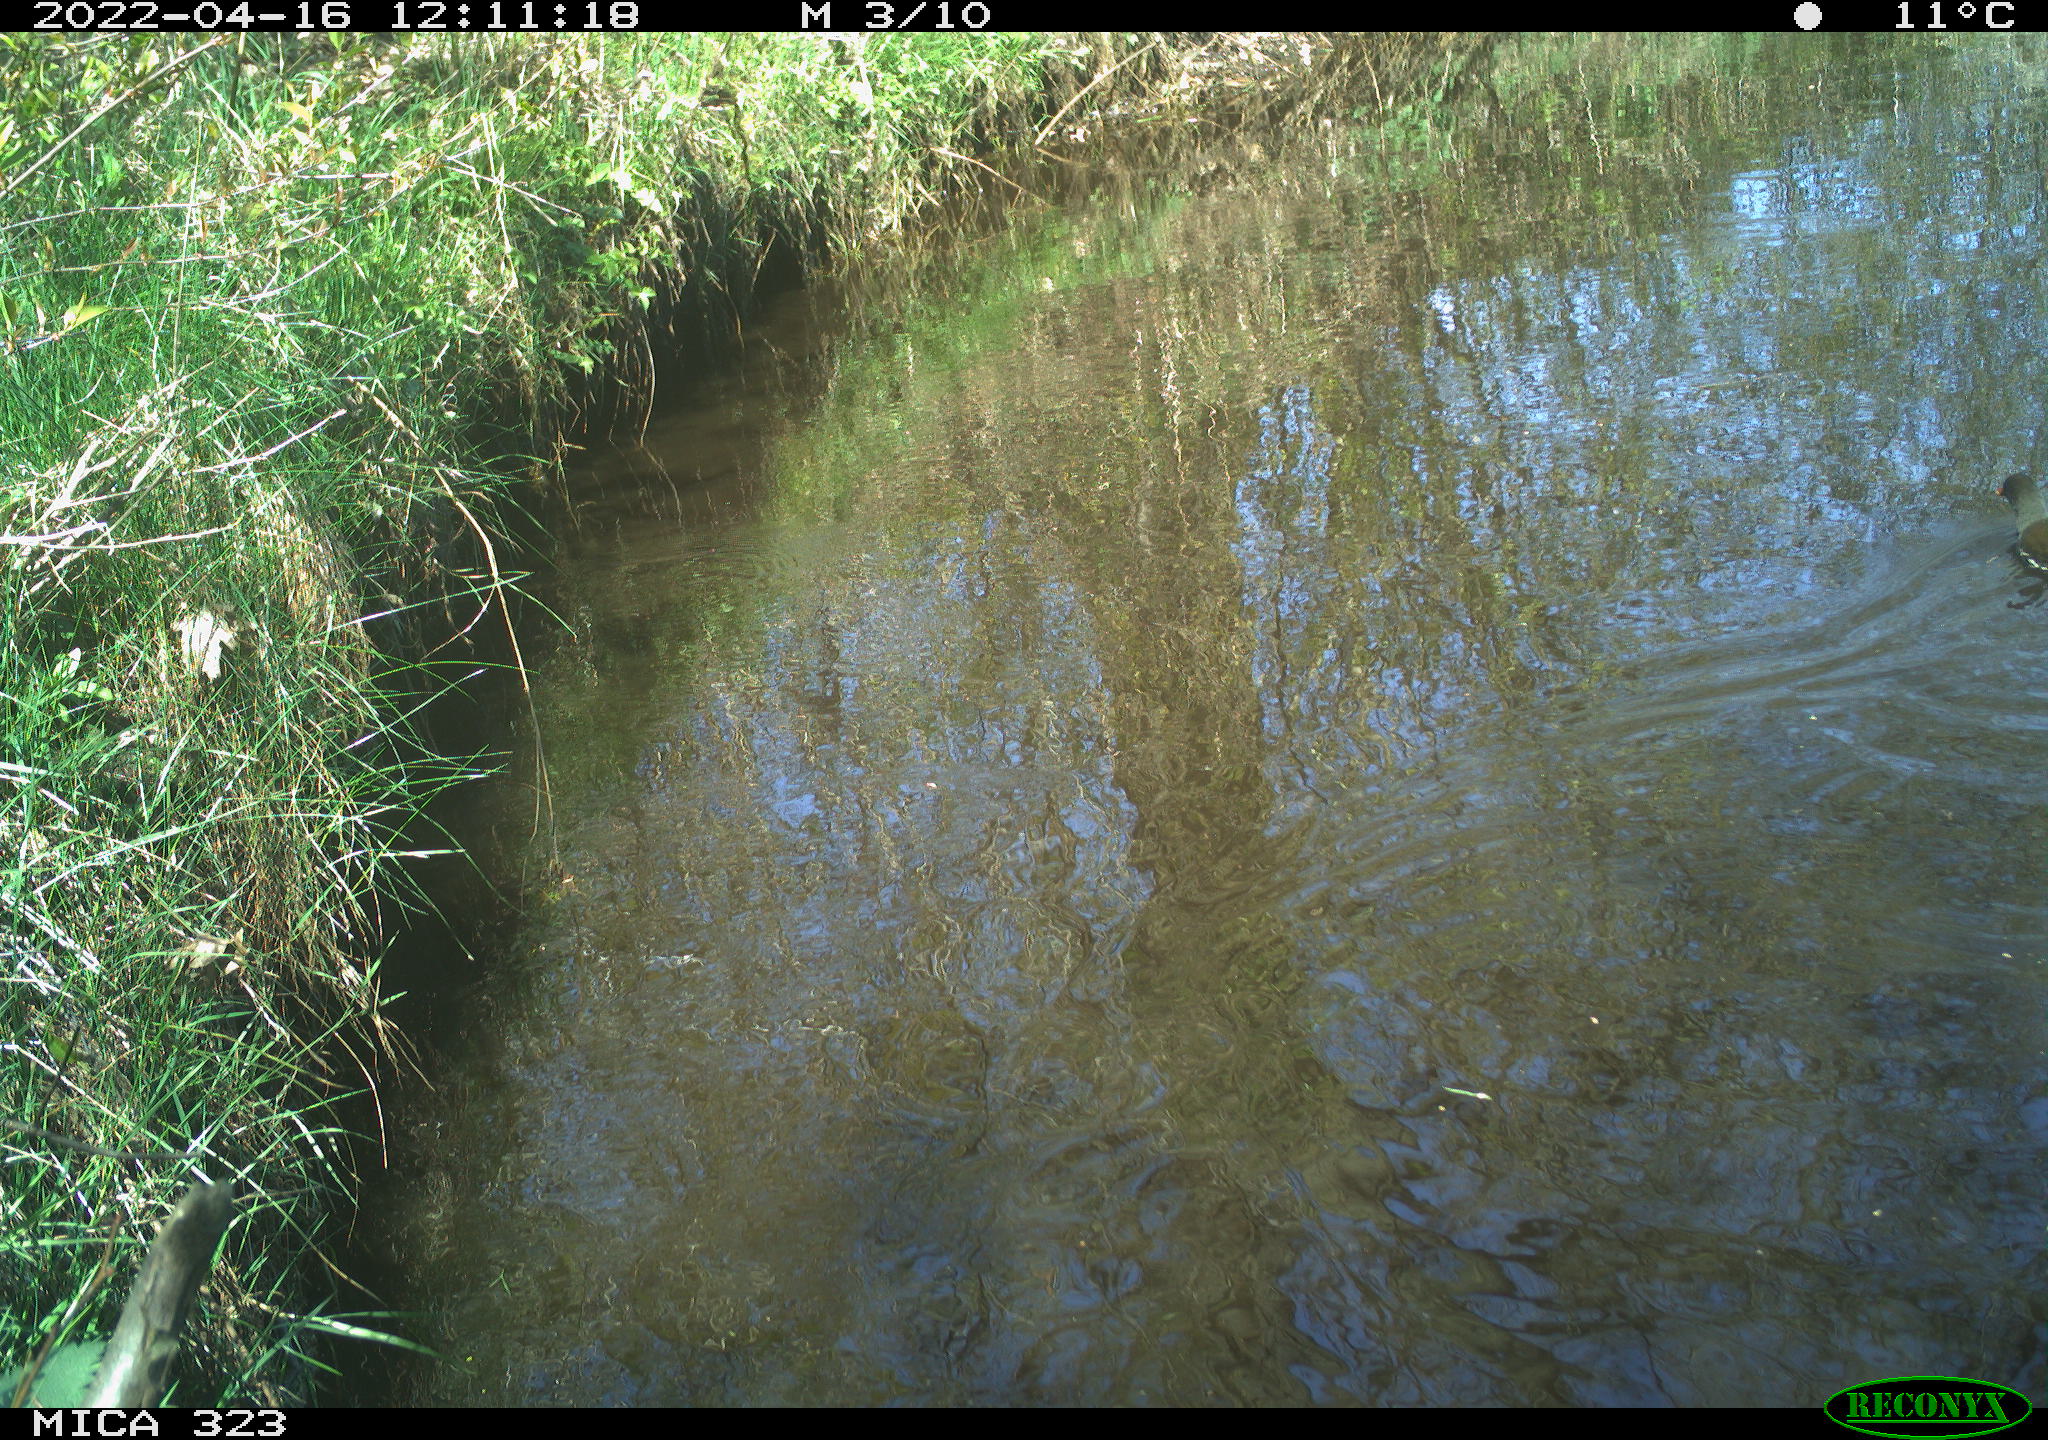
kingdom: Animalia
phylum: Chordata
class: Aves
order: Gruiformes
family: Rallidae
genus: Gallinula
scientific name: Gallinula chloropus
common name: Common moorhen
